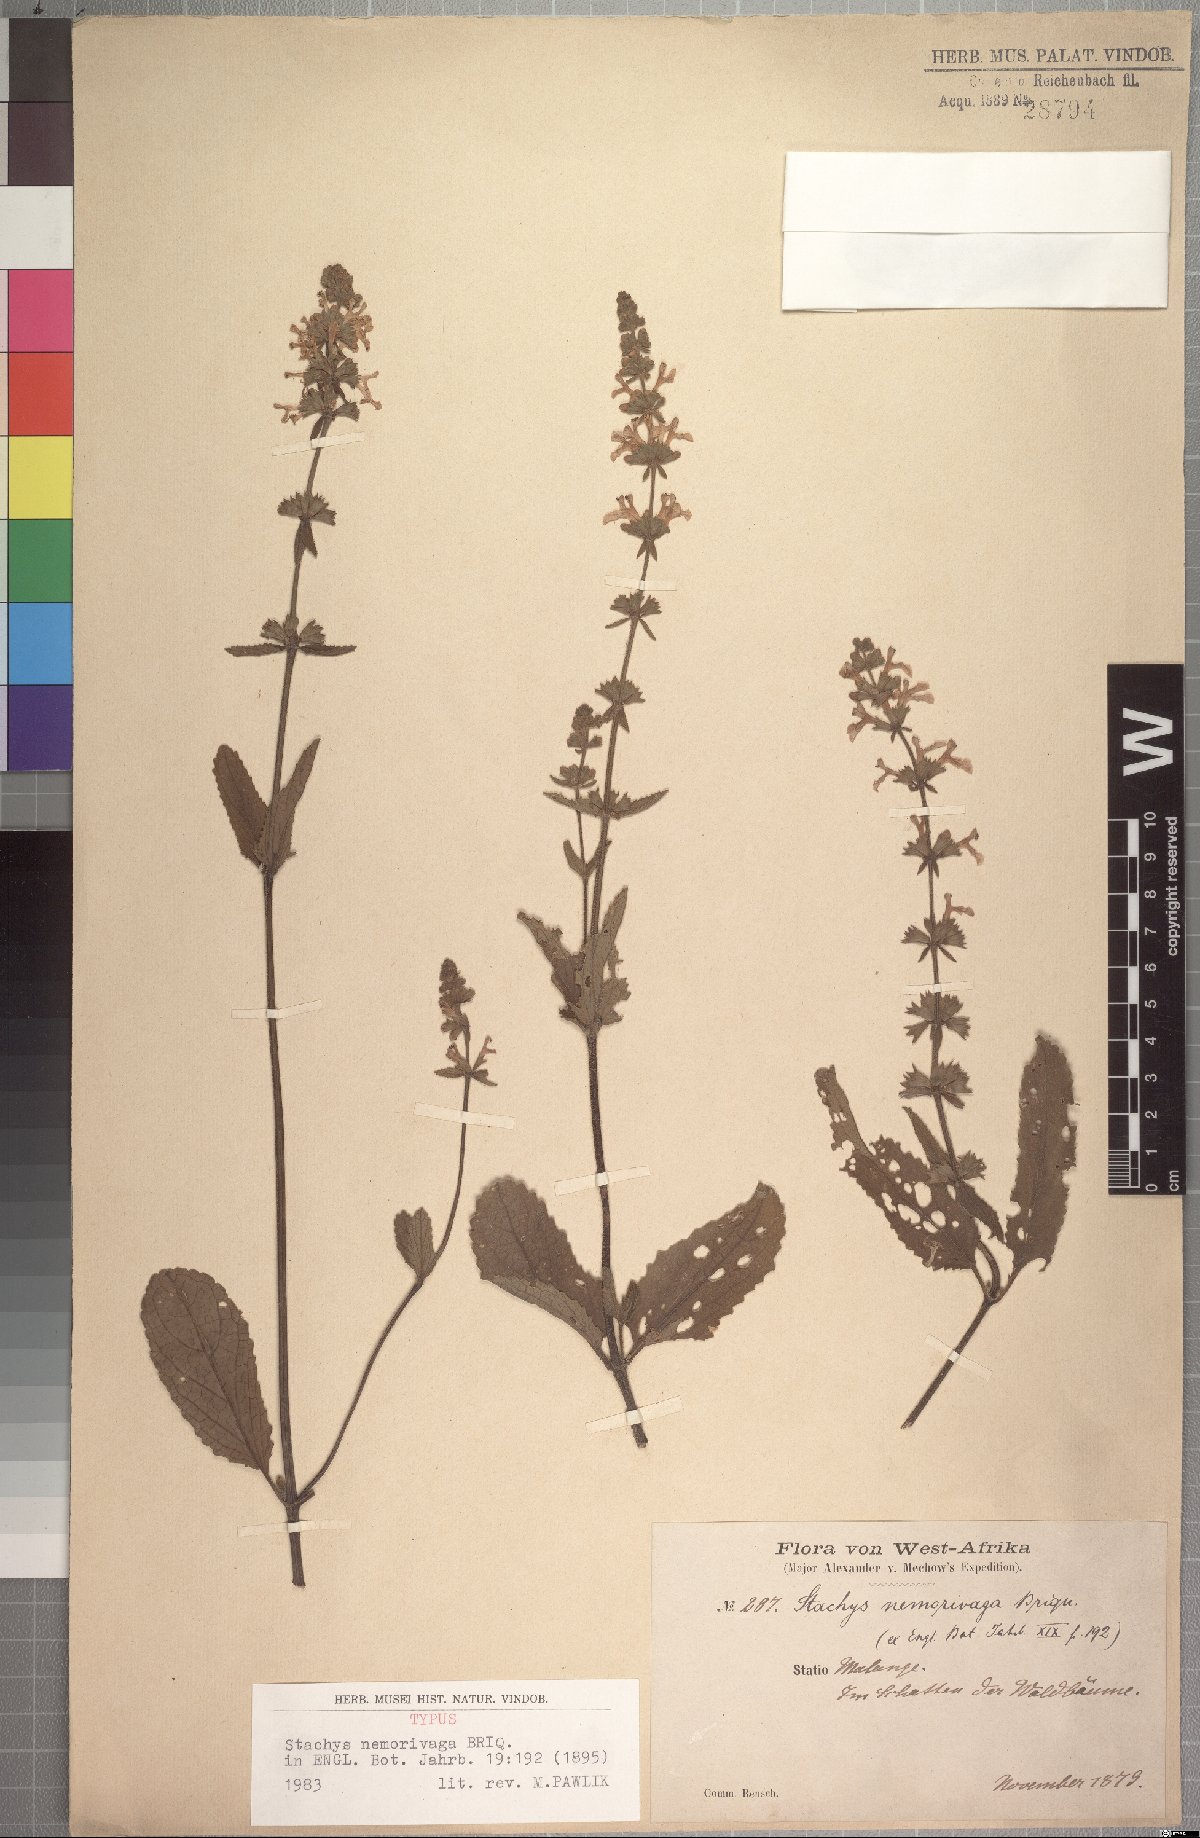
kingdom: Plantae
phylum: Tracheophyta
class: Magnoliopsida
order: Lamiales
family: Lamiaceae
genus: Stachys
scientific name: Stachys nemorivaga
